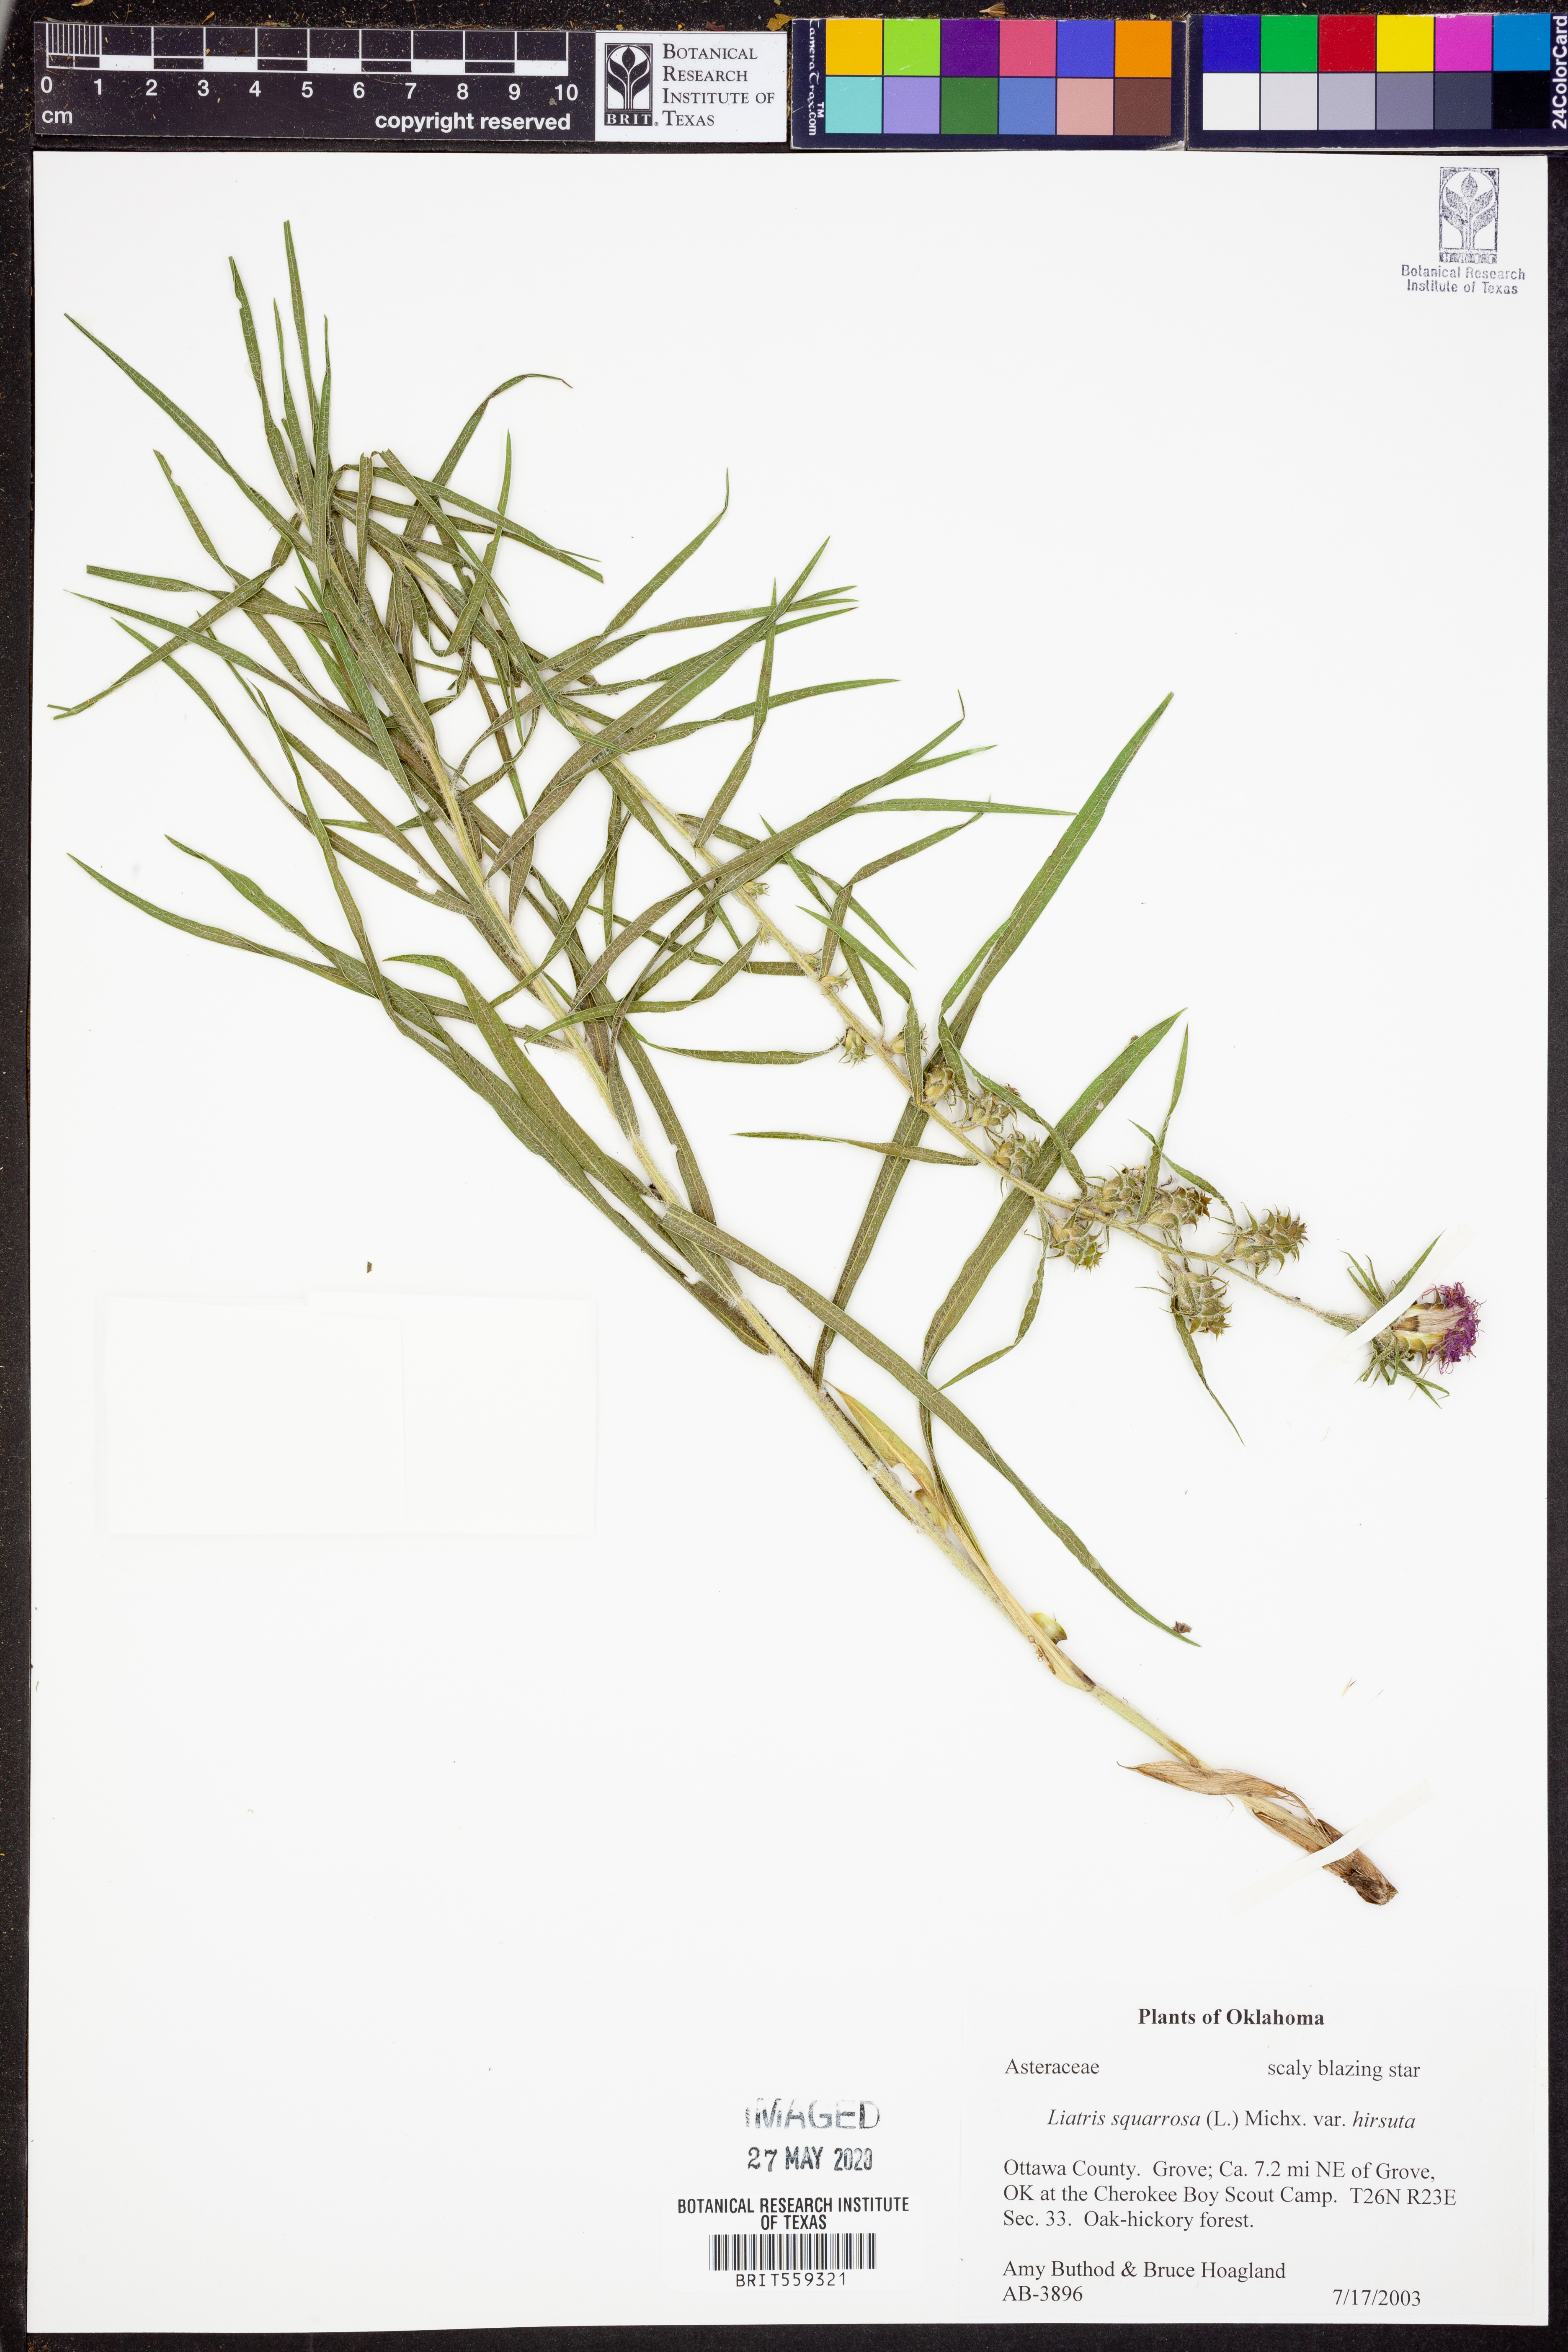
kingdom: Plantae
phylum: Tracheophyta
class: Magnoliopsida
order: Asterales
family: Asteraceae
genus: Liatris
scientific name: Liatris hirsuta
